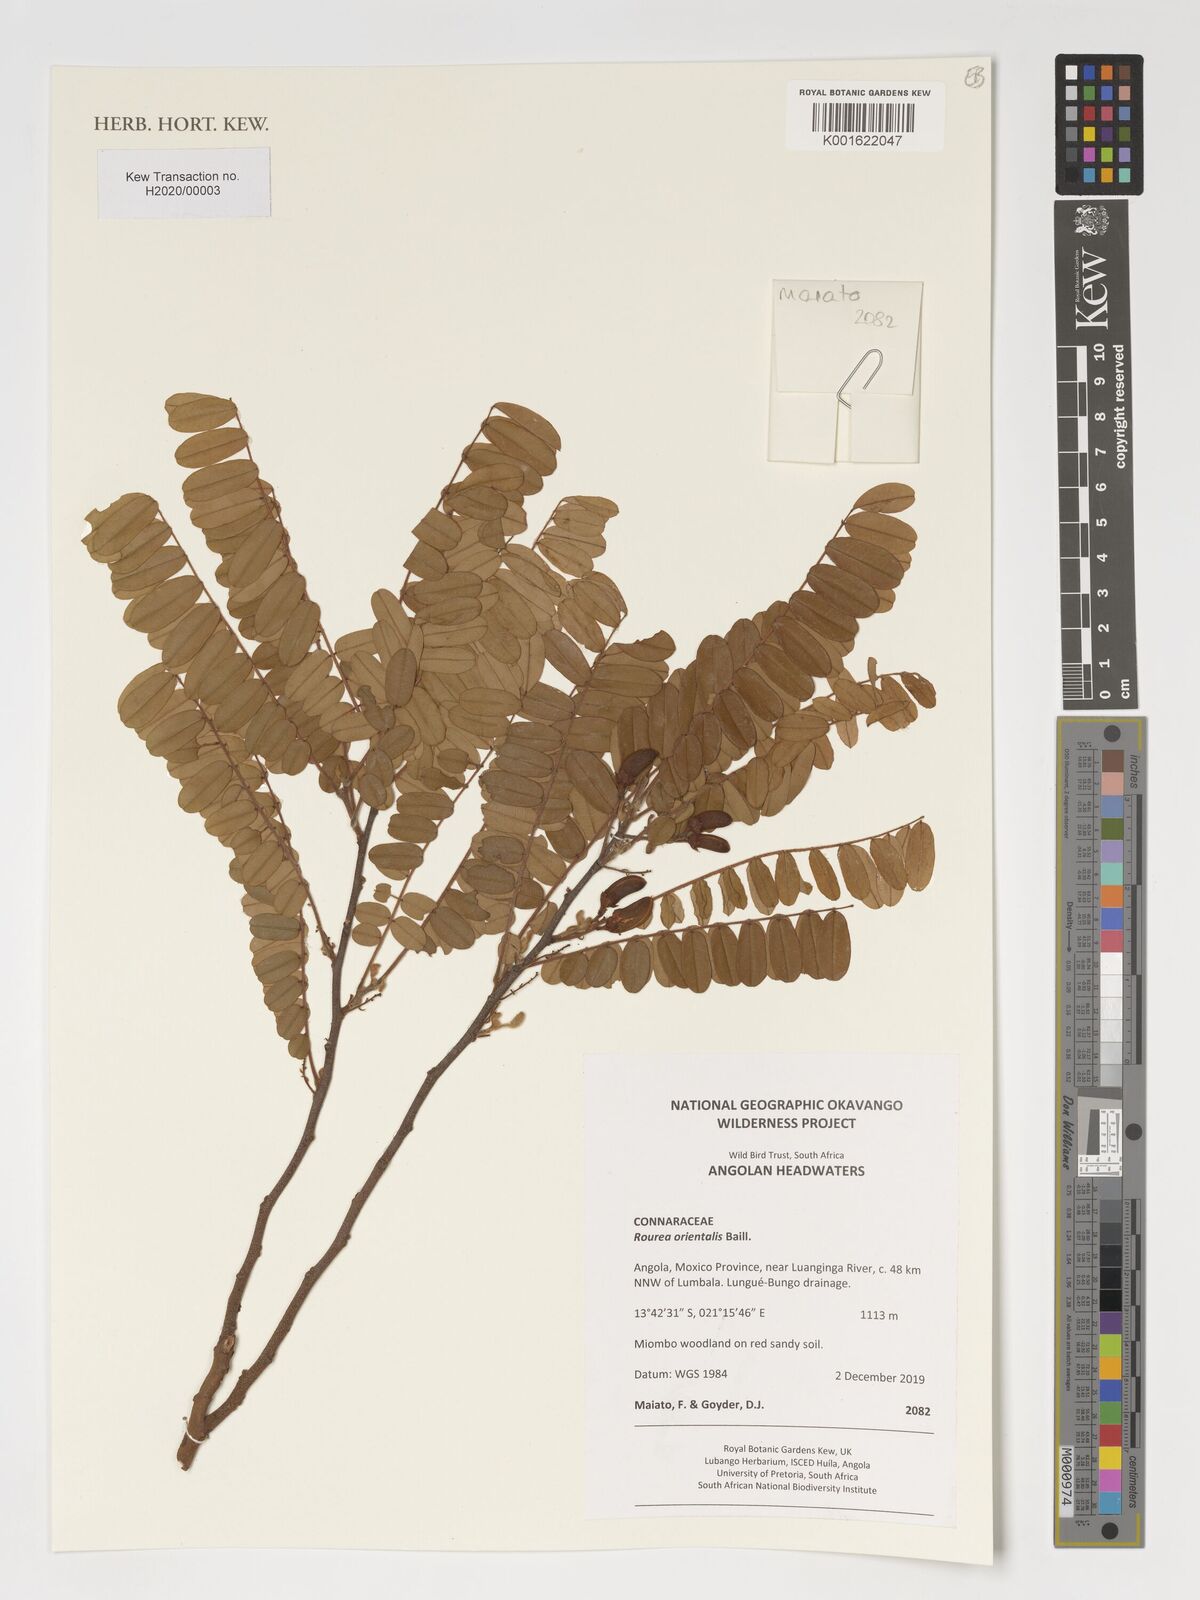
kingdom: Plantae
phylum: Tracheophyta
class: Magnoliopsida
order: Oxalidales
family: Connaraceae
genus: Rourea
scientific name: Rourea orientalis
